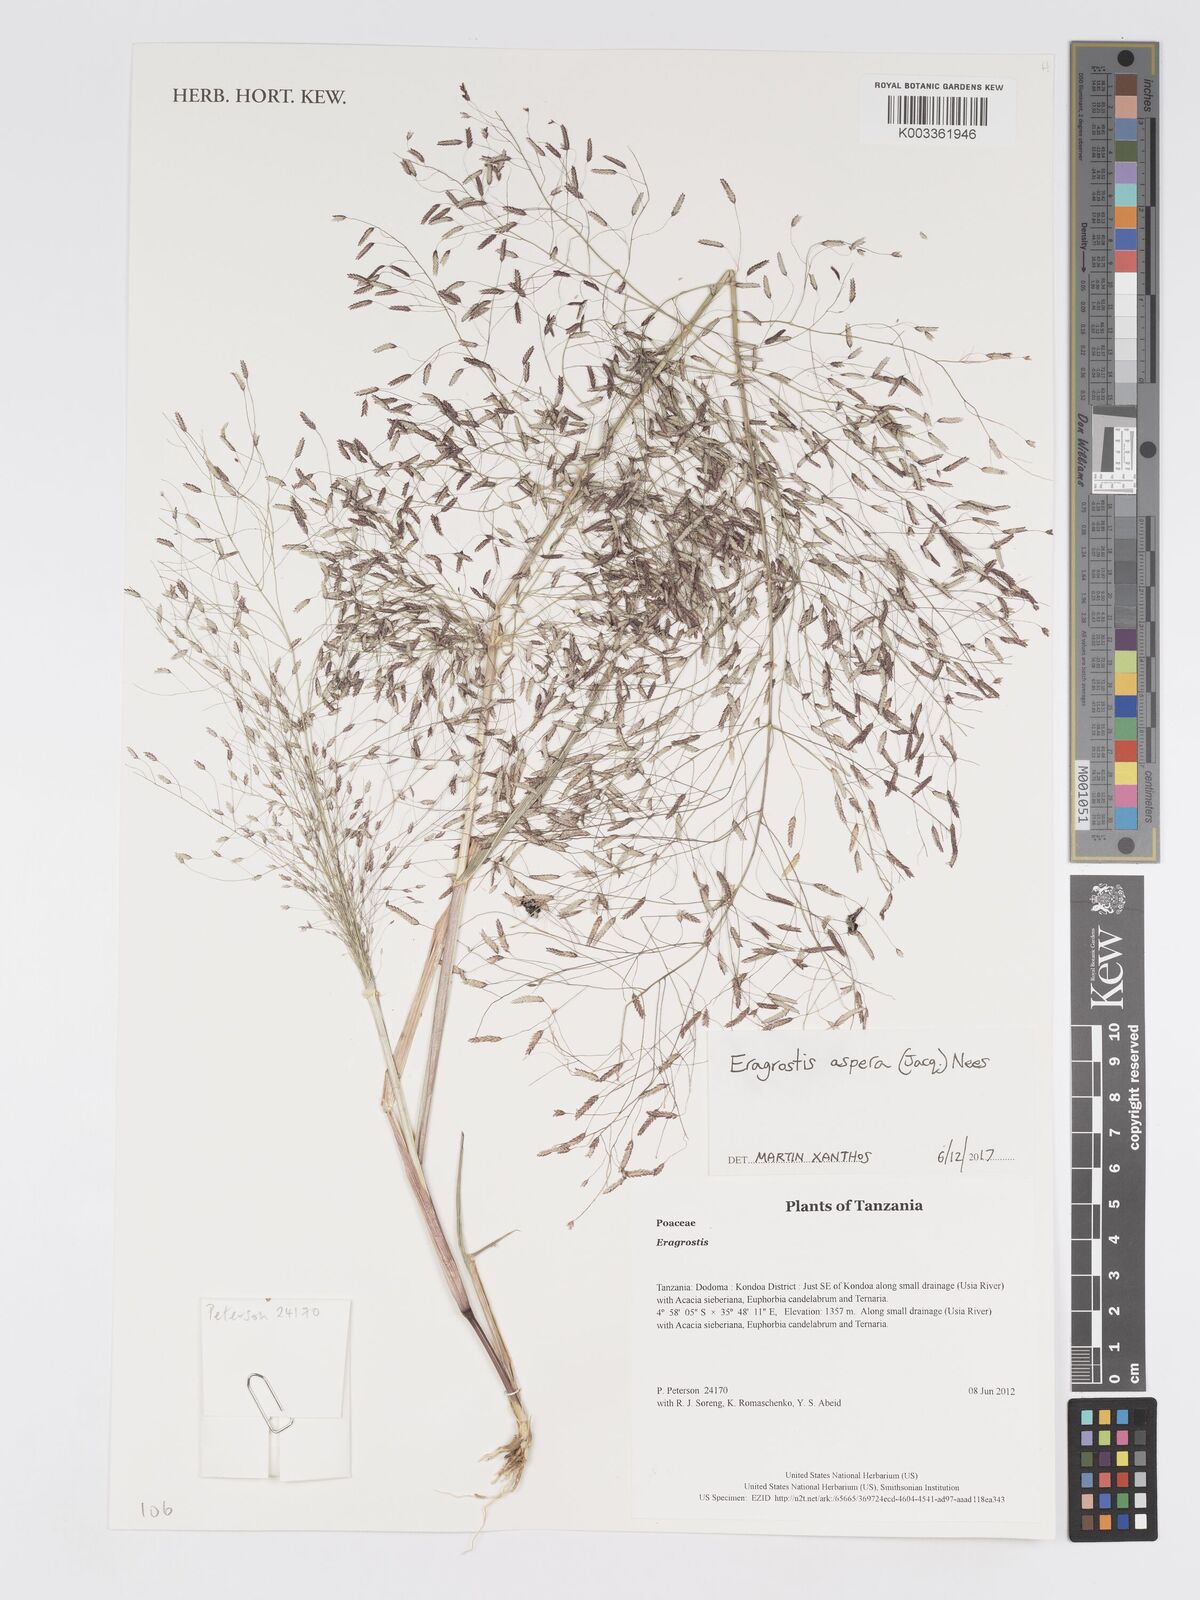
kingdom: Plantae
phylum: Tracheophyta
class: Liliopsida
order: Poales
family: Poaceae
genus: Eragrostis
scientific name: Eragrostis aspera
